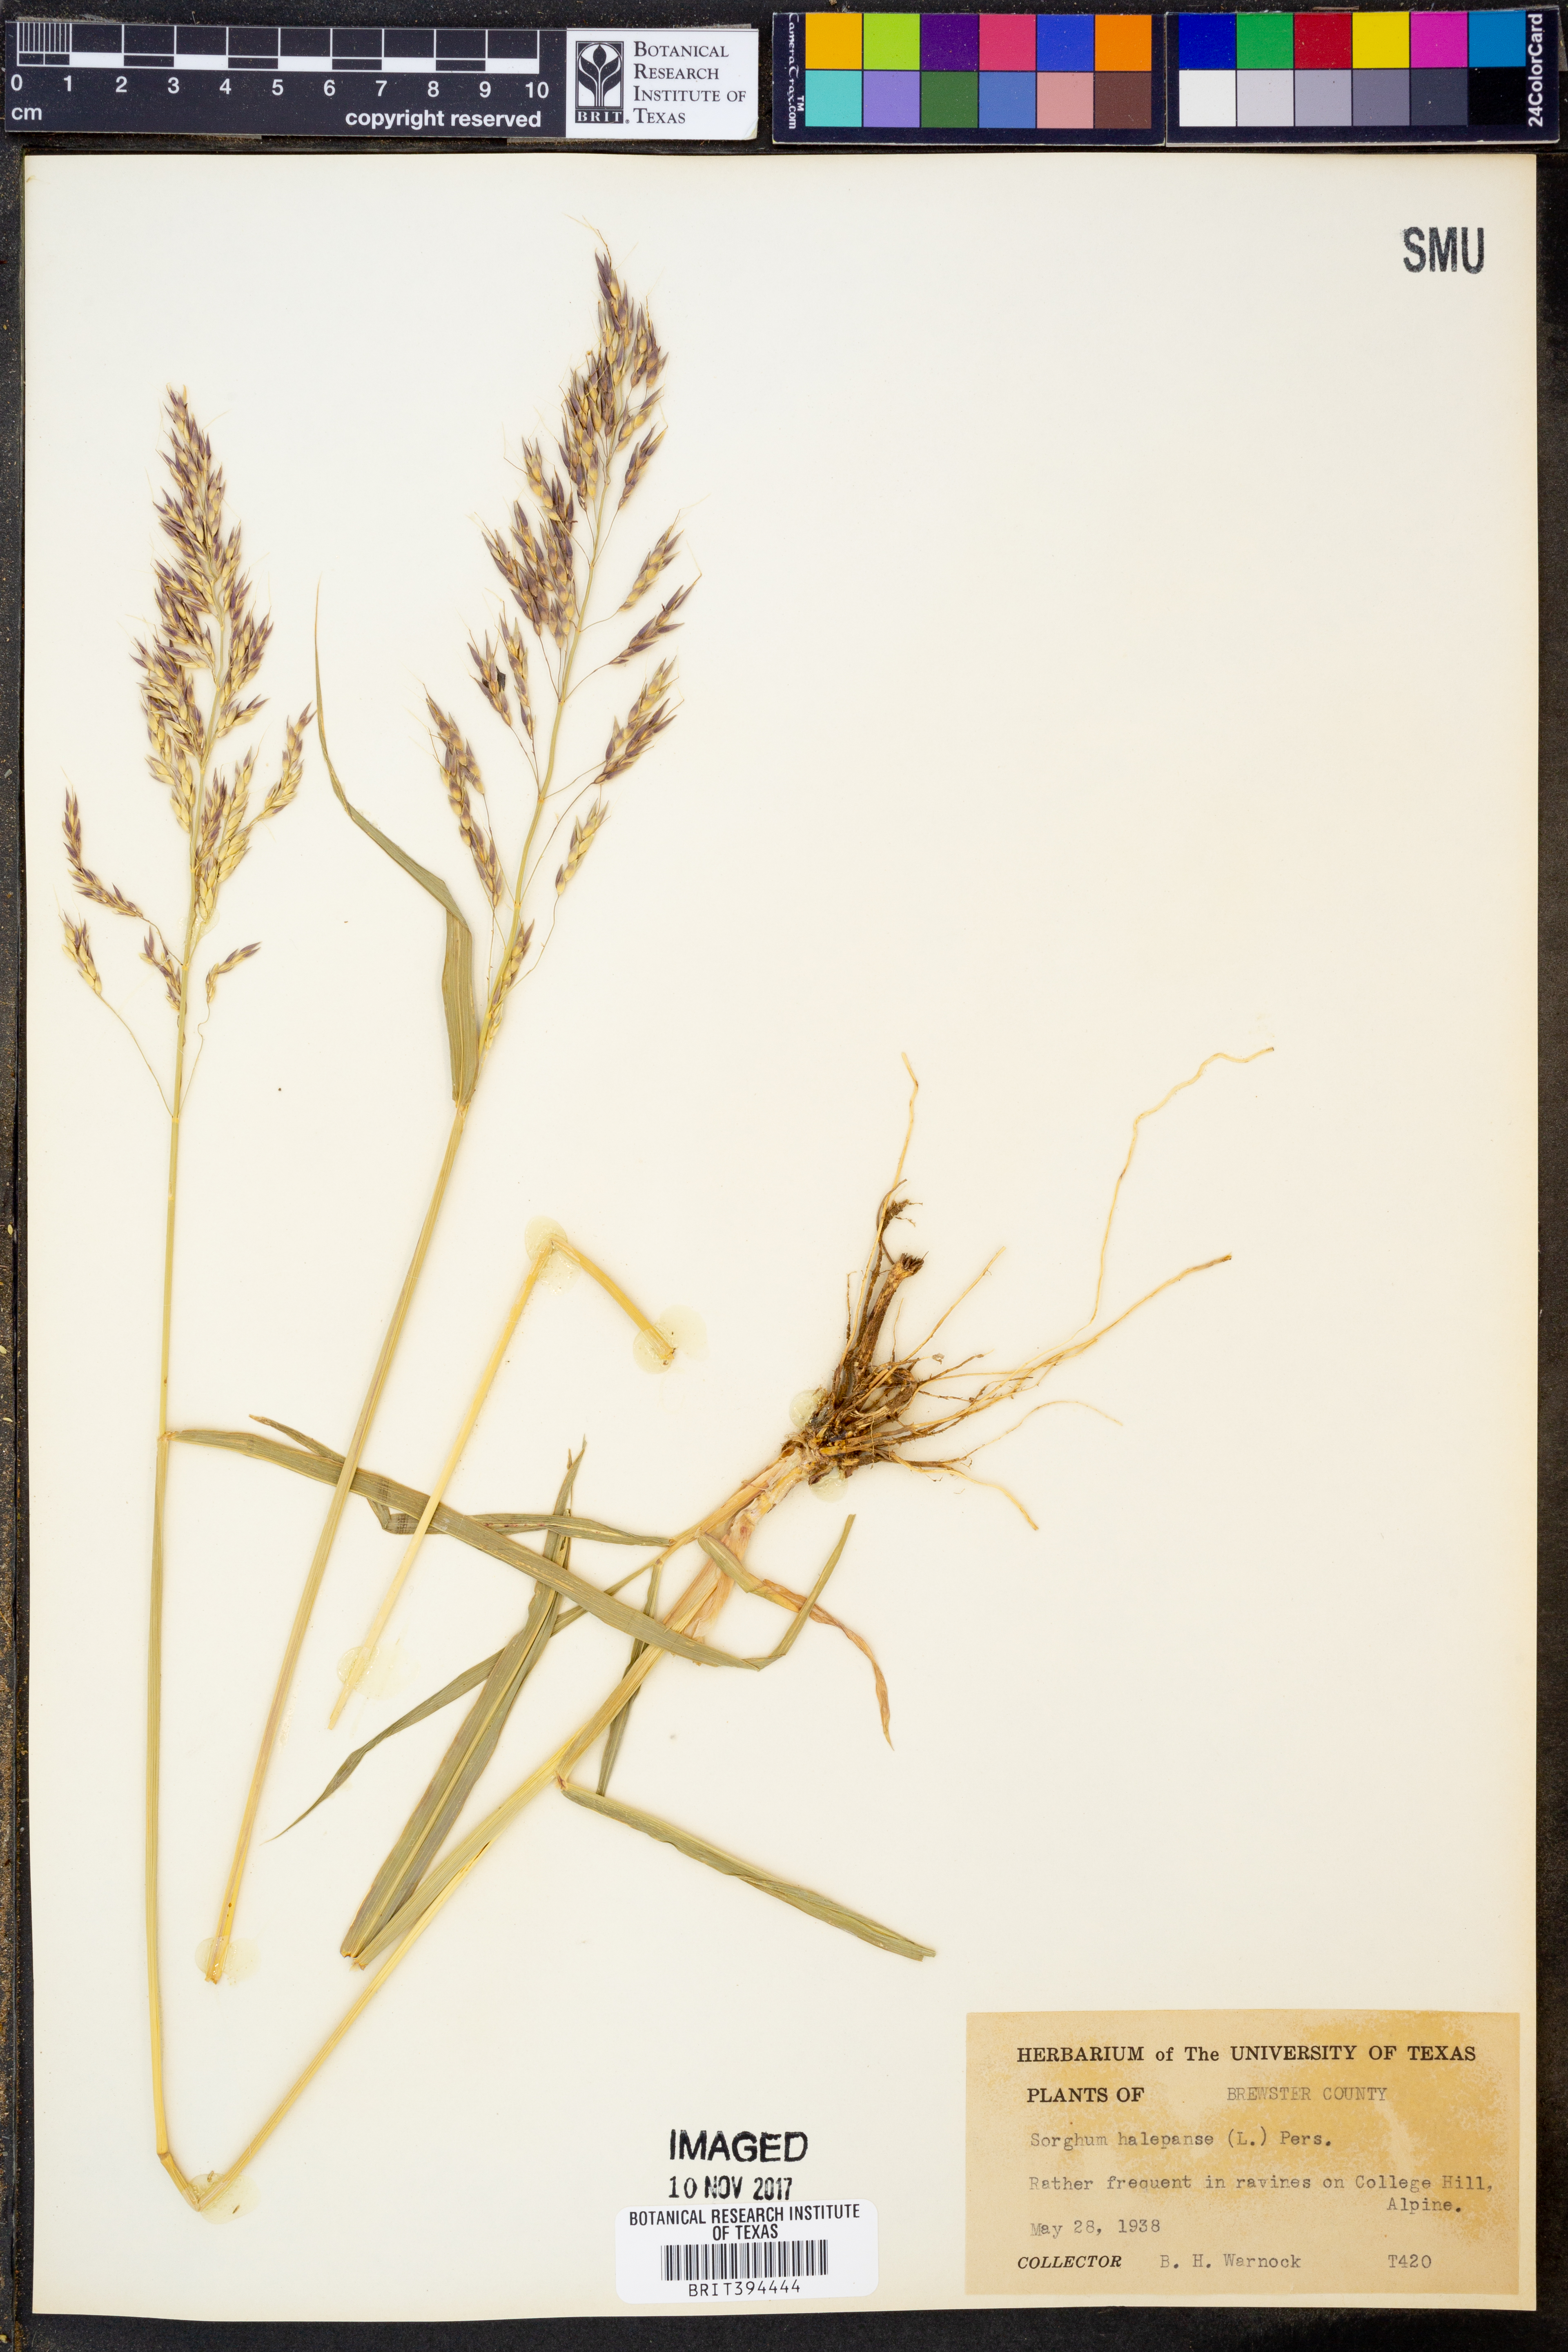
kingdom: Plantae
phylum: Tracheophyta
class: Liliopsida
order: Poales
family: Poaceae
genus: Sorghum
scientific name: Sorghum halepense
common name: Johnson-grass
